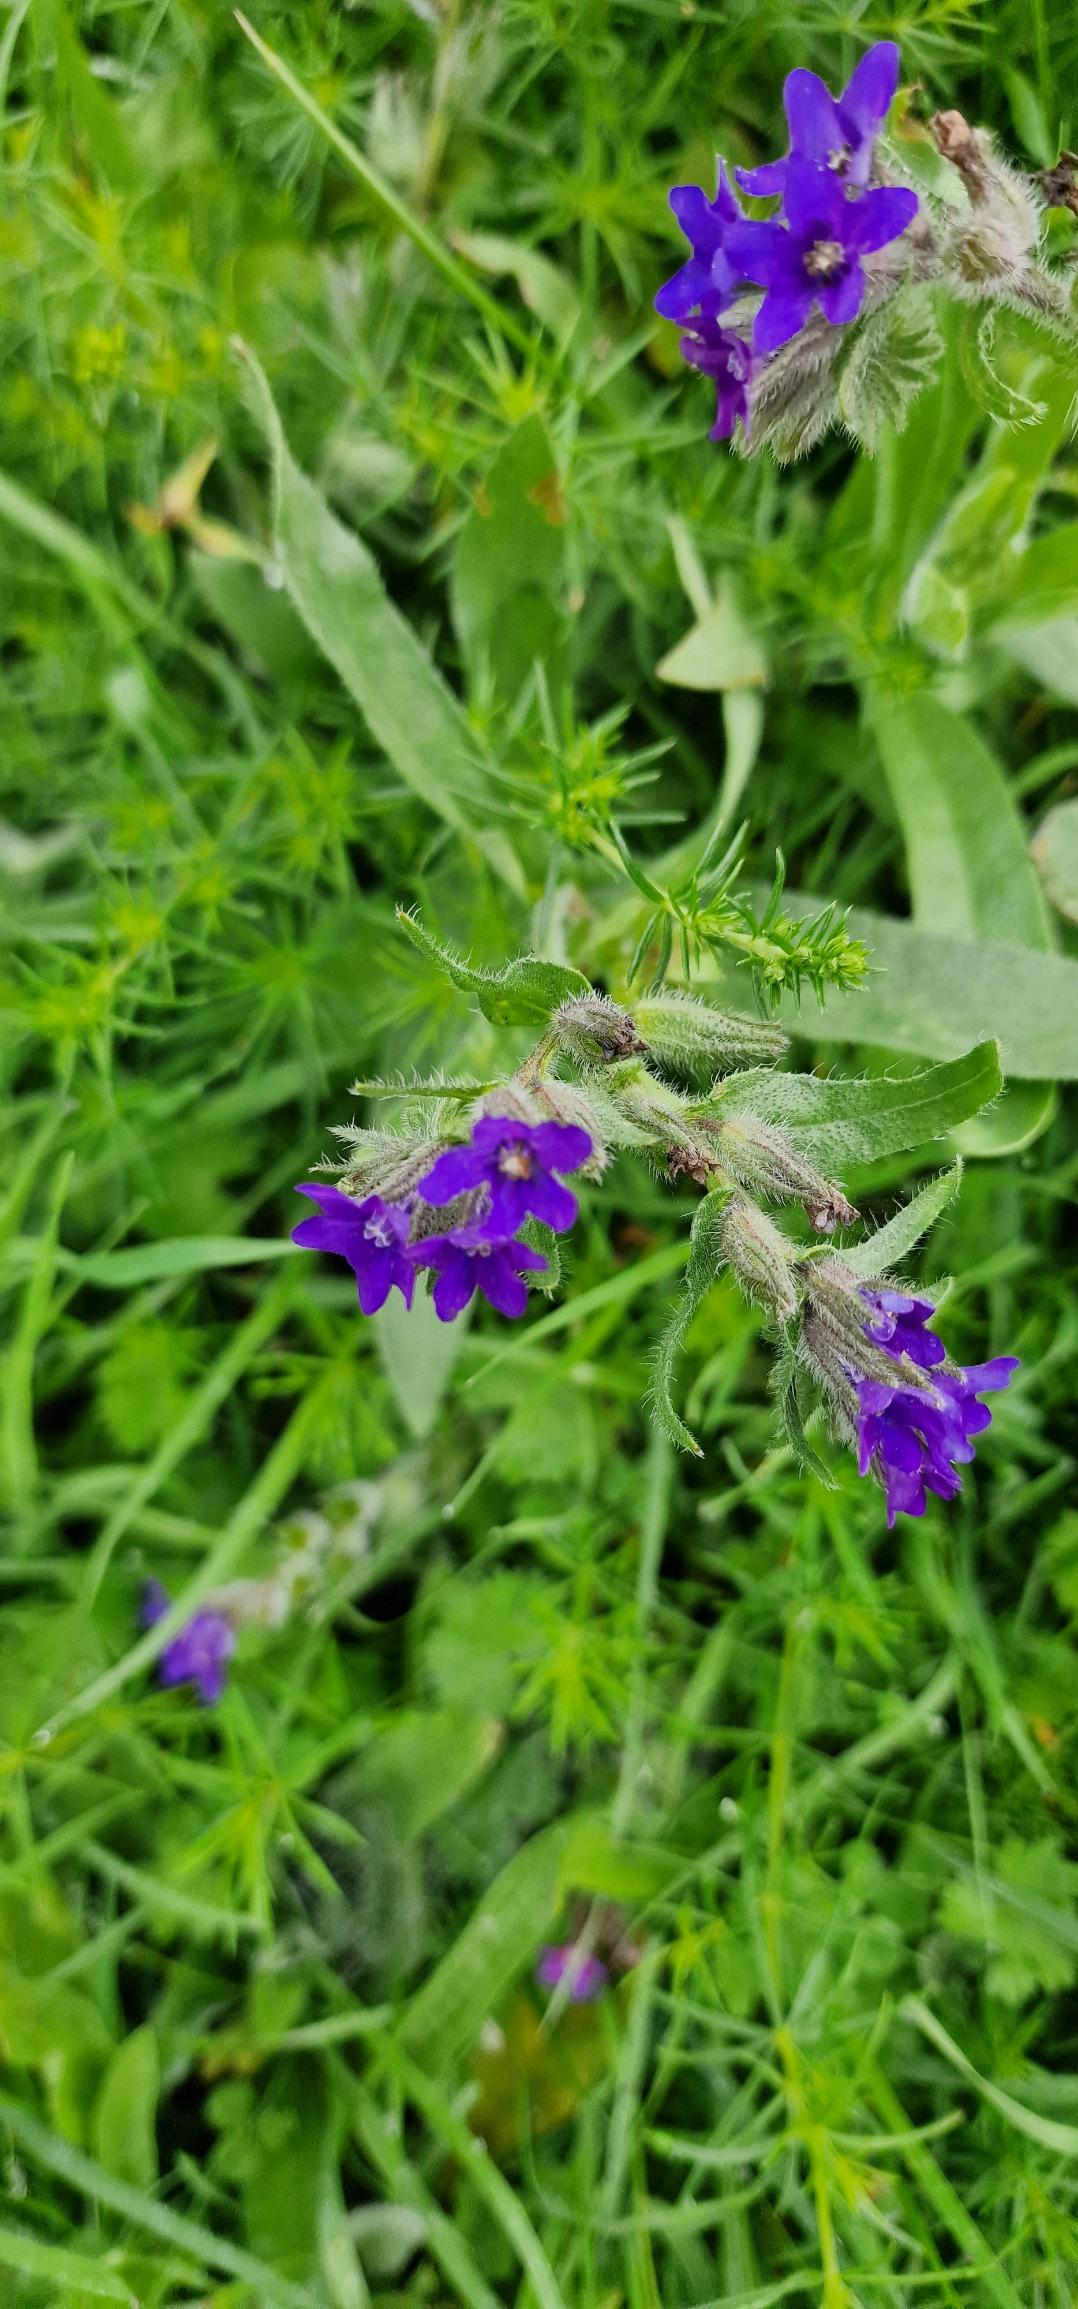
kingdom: Plantae
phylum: Tracheophyta
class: Magnoliopsida
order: Boraginales
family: Boraginaceae
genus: Anchusa
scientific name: Anchusa officinalis
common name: Læge-oksetunge
